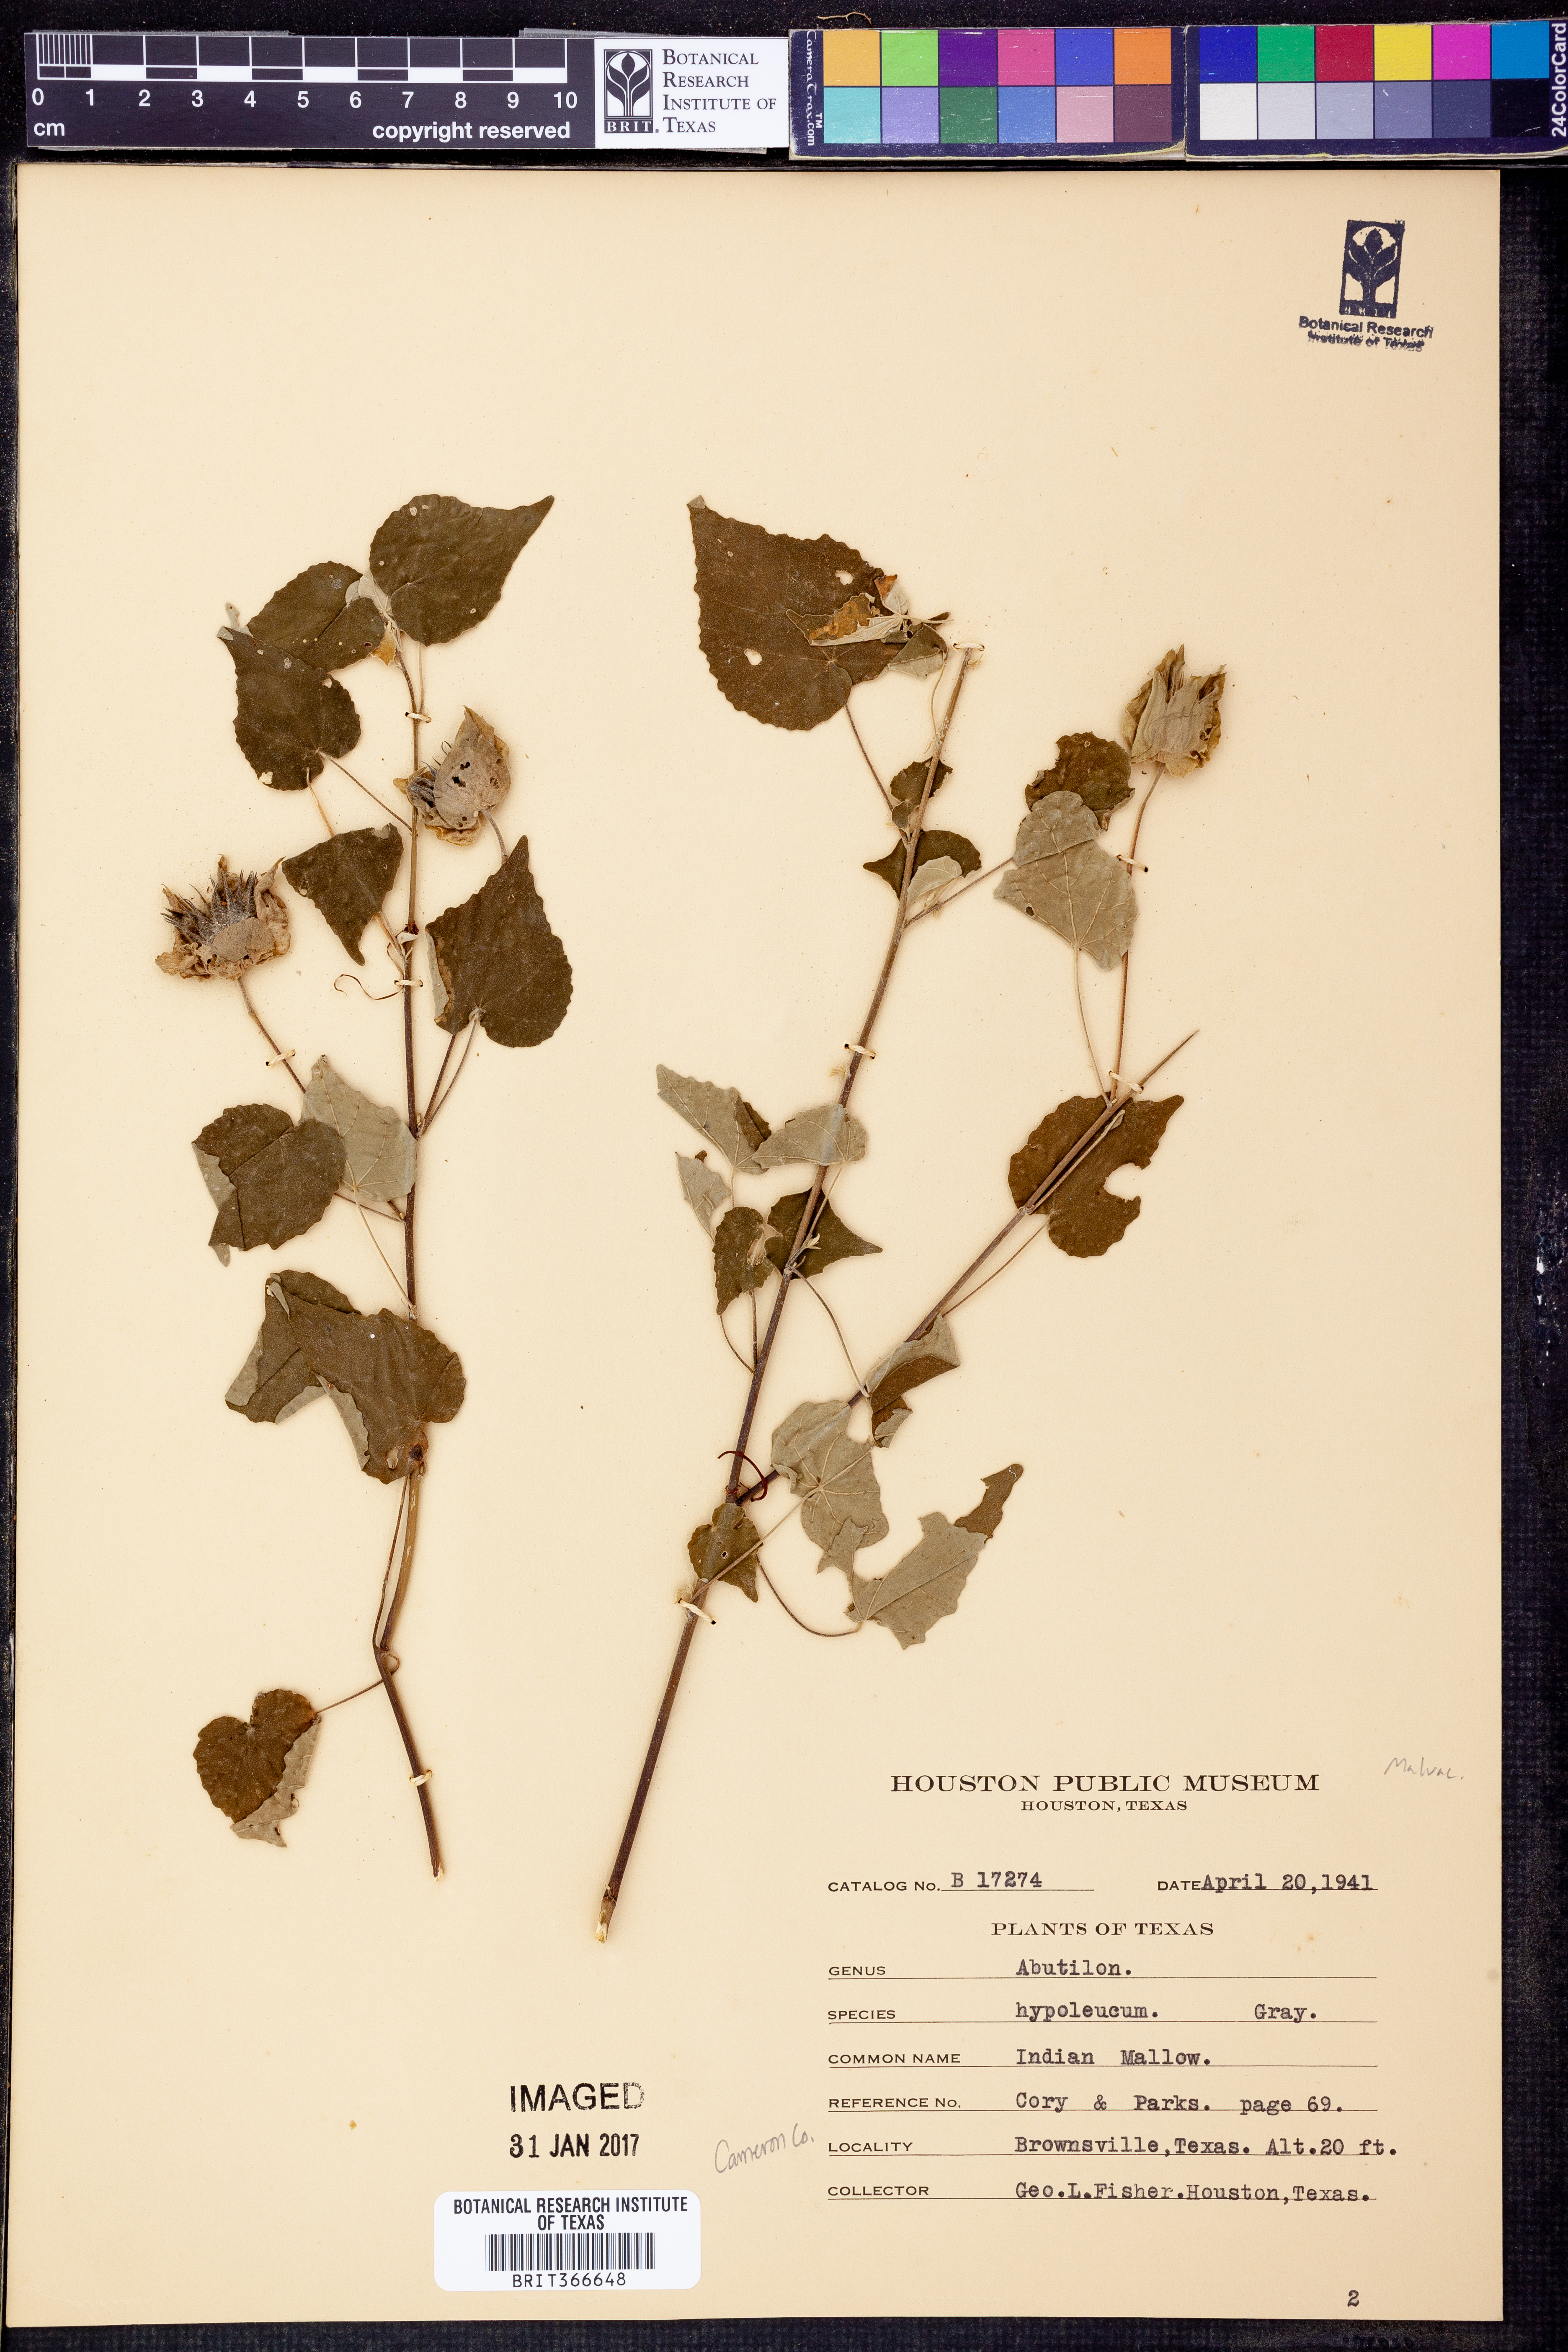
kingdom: Plantae
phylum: Tracheophyta
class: Magnoliopsida
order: Malvales
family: Malvaceae
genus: Abutilon
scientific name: Abutilon hypoleucum
